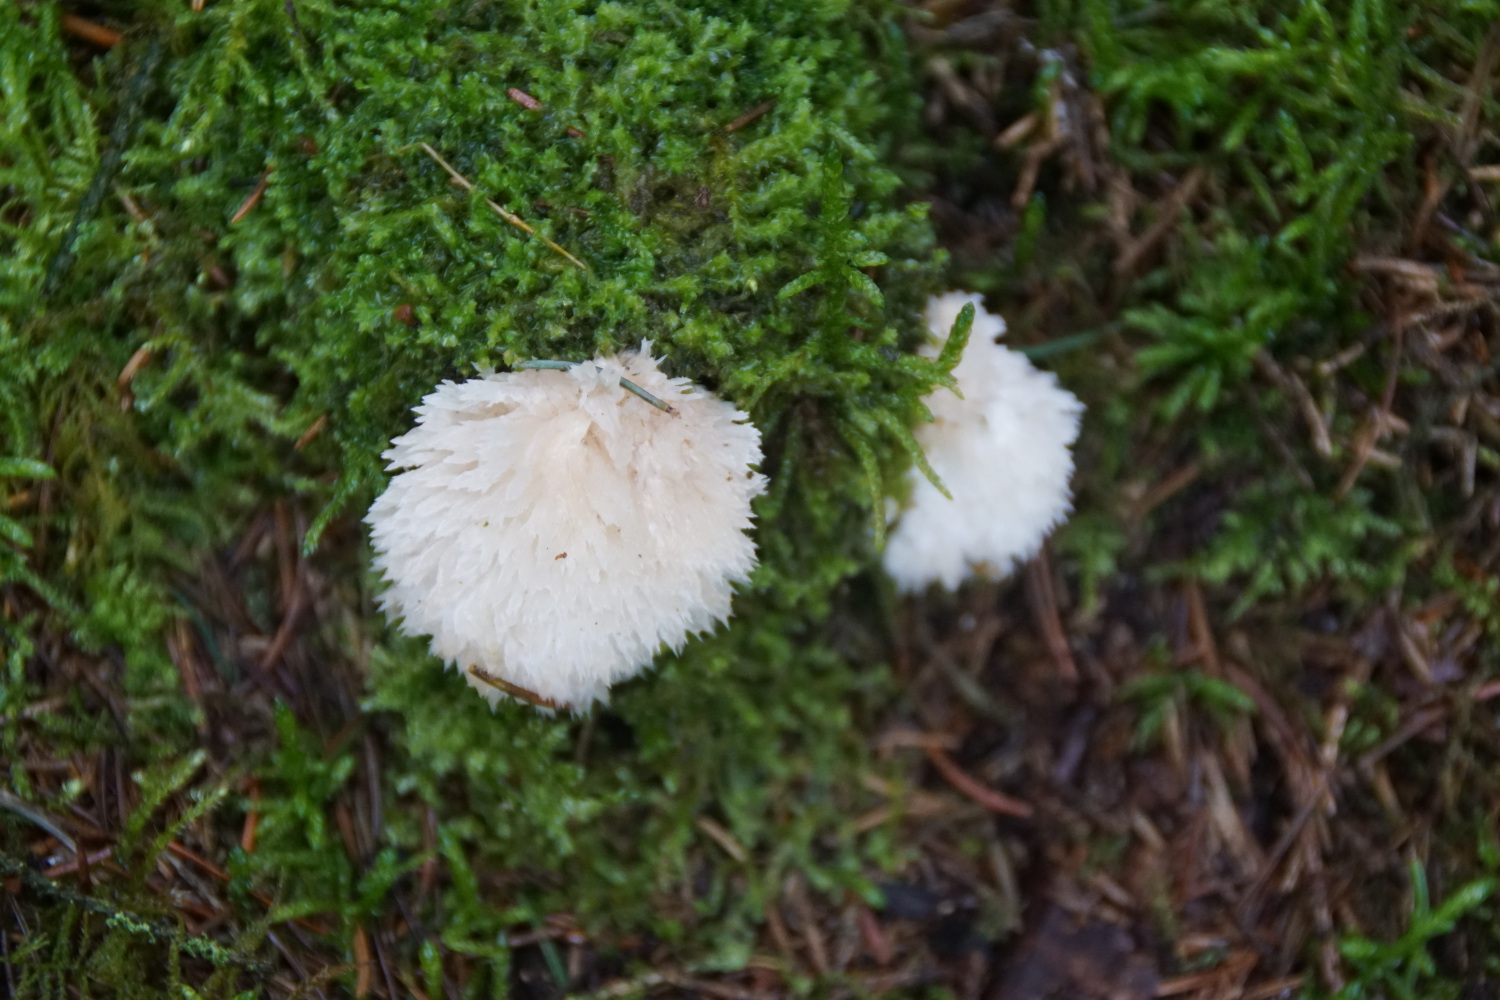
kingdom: Fungi
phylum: Basidiomycota
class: Agaricomycetes
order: Polyporales
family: Dacryobolaceae
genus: Postia
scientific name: Postia ptychogaster
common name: støvende kødporesvamp
